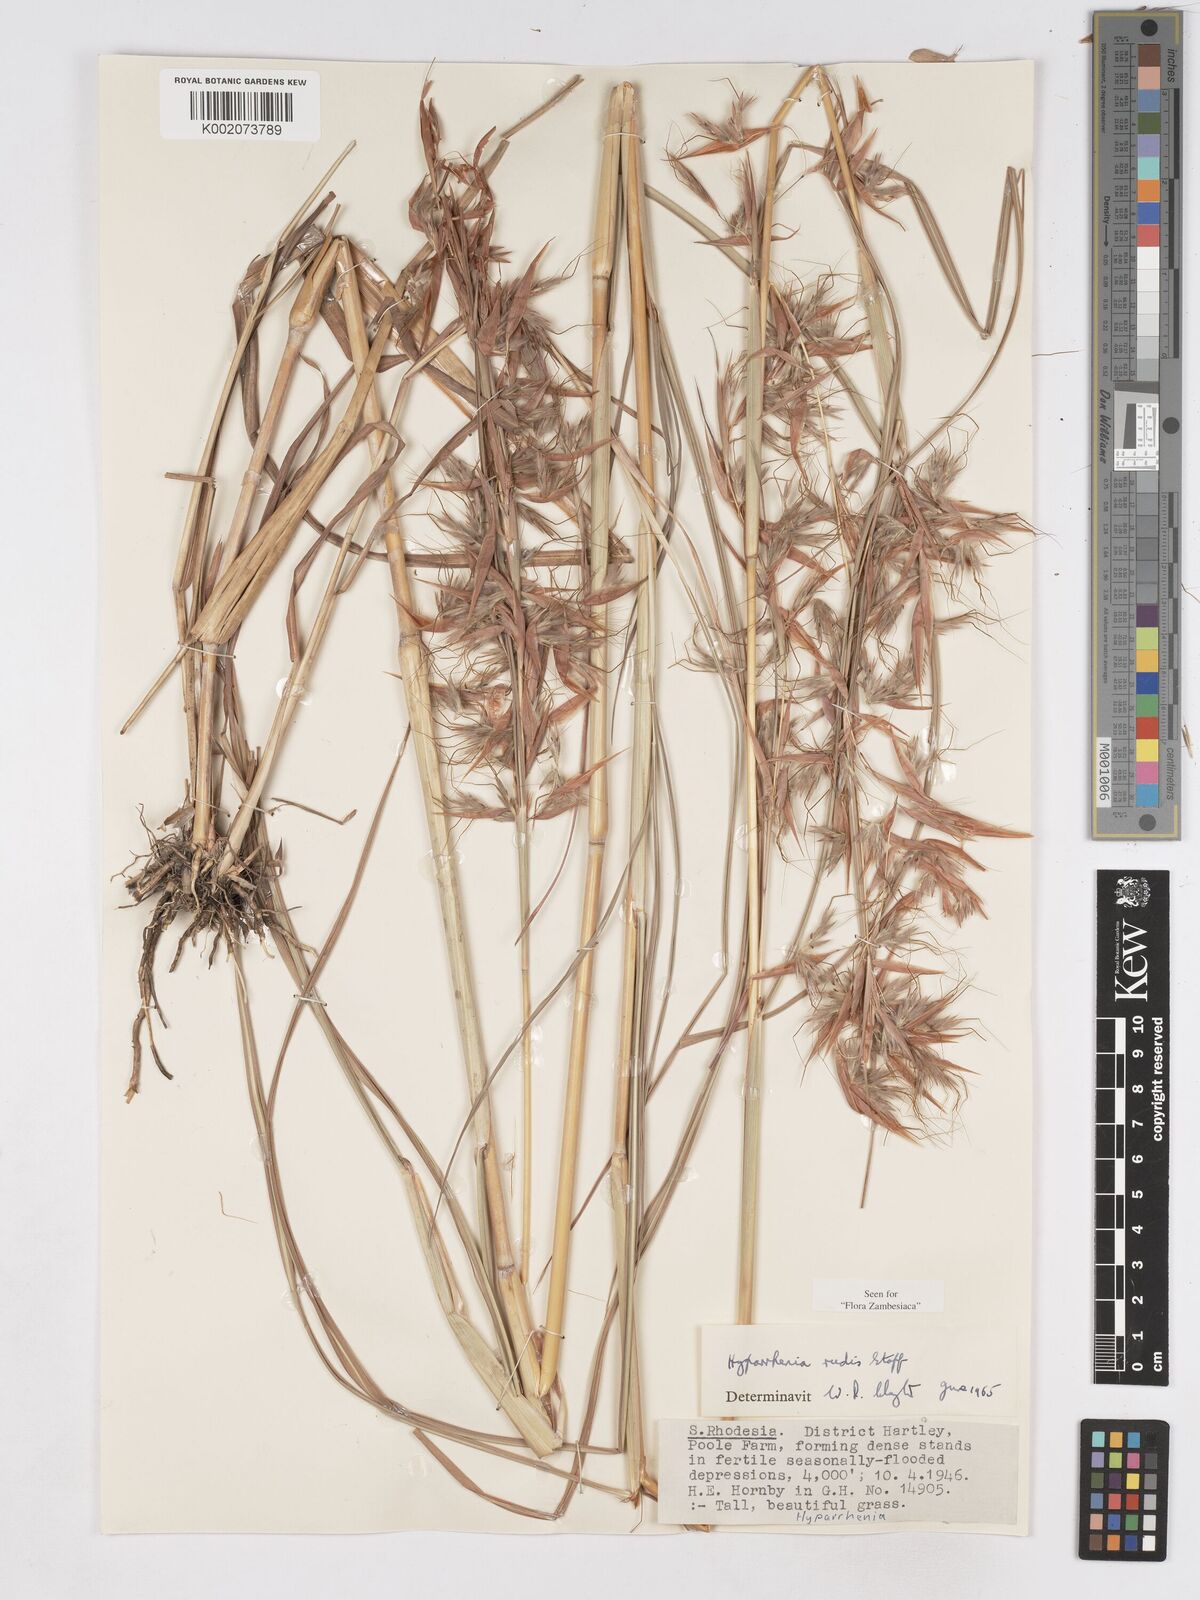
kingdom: Plantae
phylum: Tracheophyta
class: Liliopsida
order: Poales
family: Poaceae
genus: Hyparrhenia
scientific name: Hyparrhenia rudis
